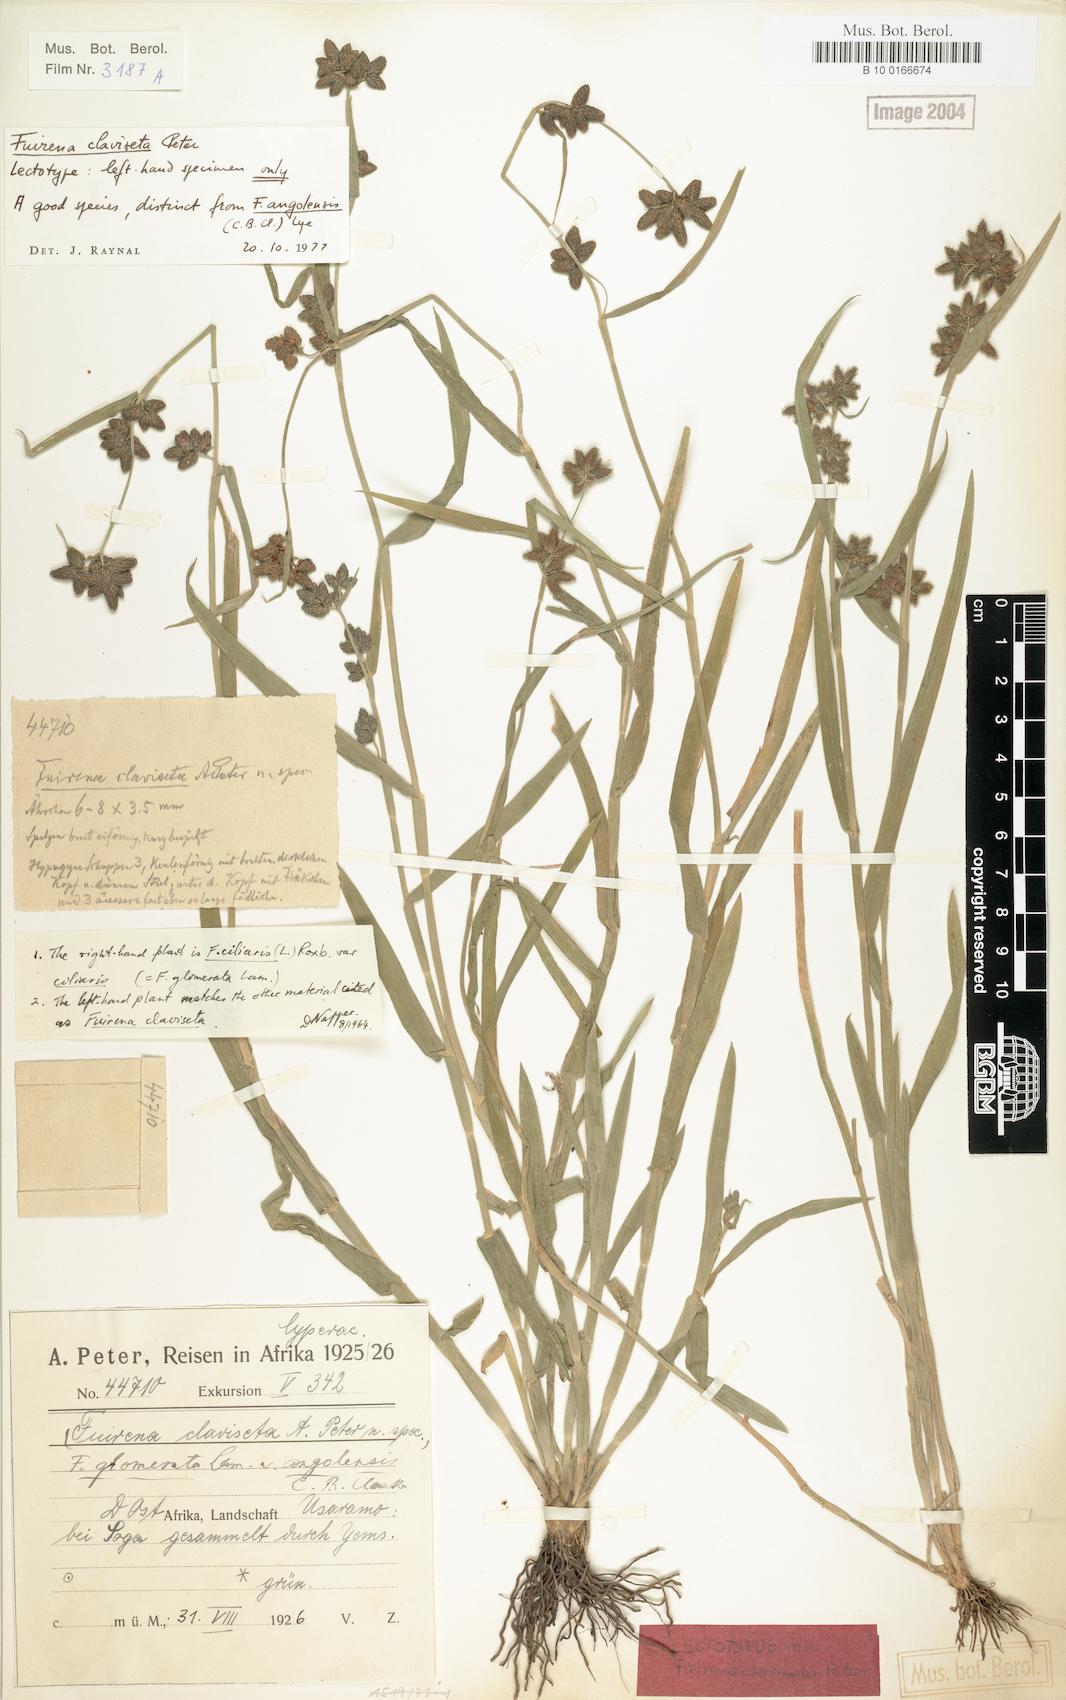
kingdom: Plantae
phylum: Tracheophyta
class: Liliopsida
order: Poales
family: Cyperaceae
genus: Fuirena
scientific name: Fuirena ciliaris
